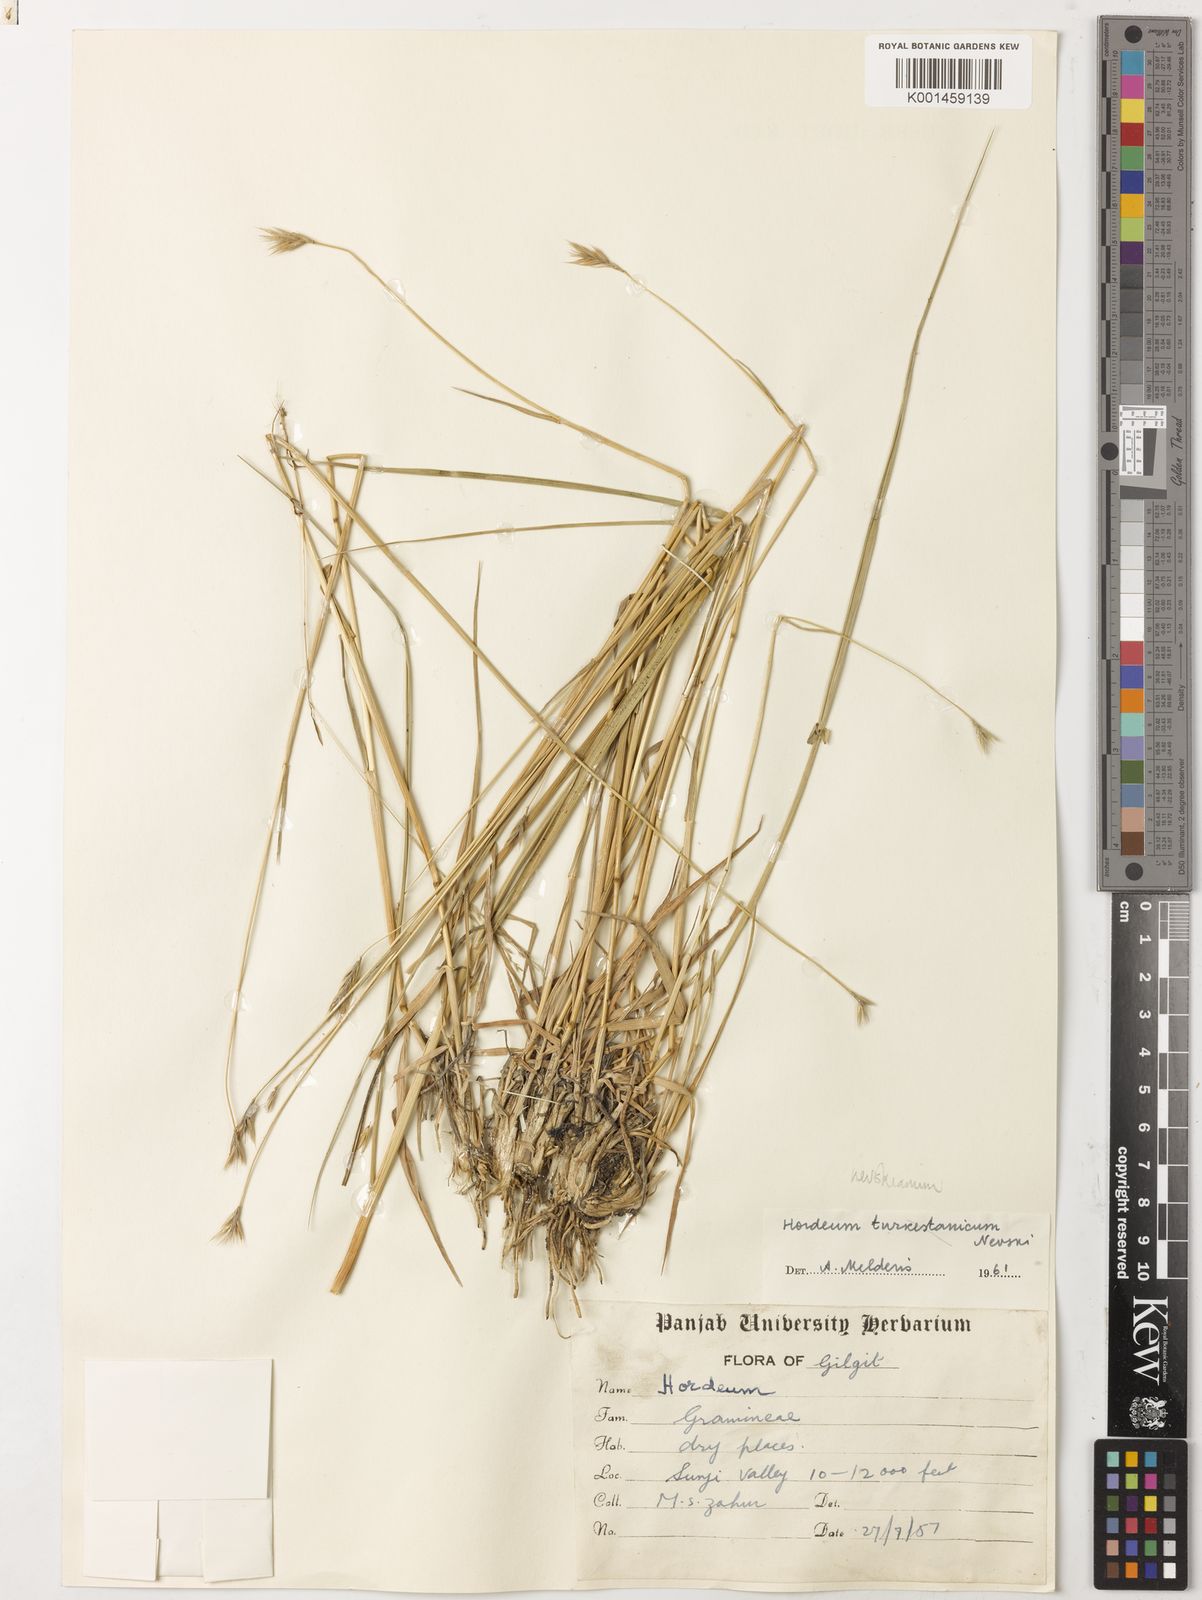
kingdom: Plantae
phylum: Tracheophyta
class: Liliopsida
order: Poales
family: Poaceae
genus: Hordeum
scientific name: Hordeum brevisubulatum
